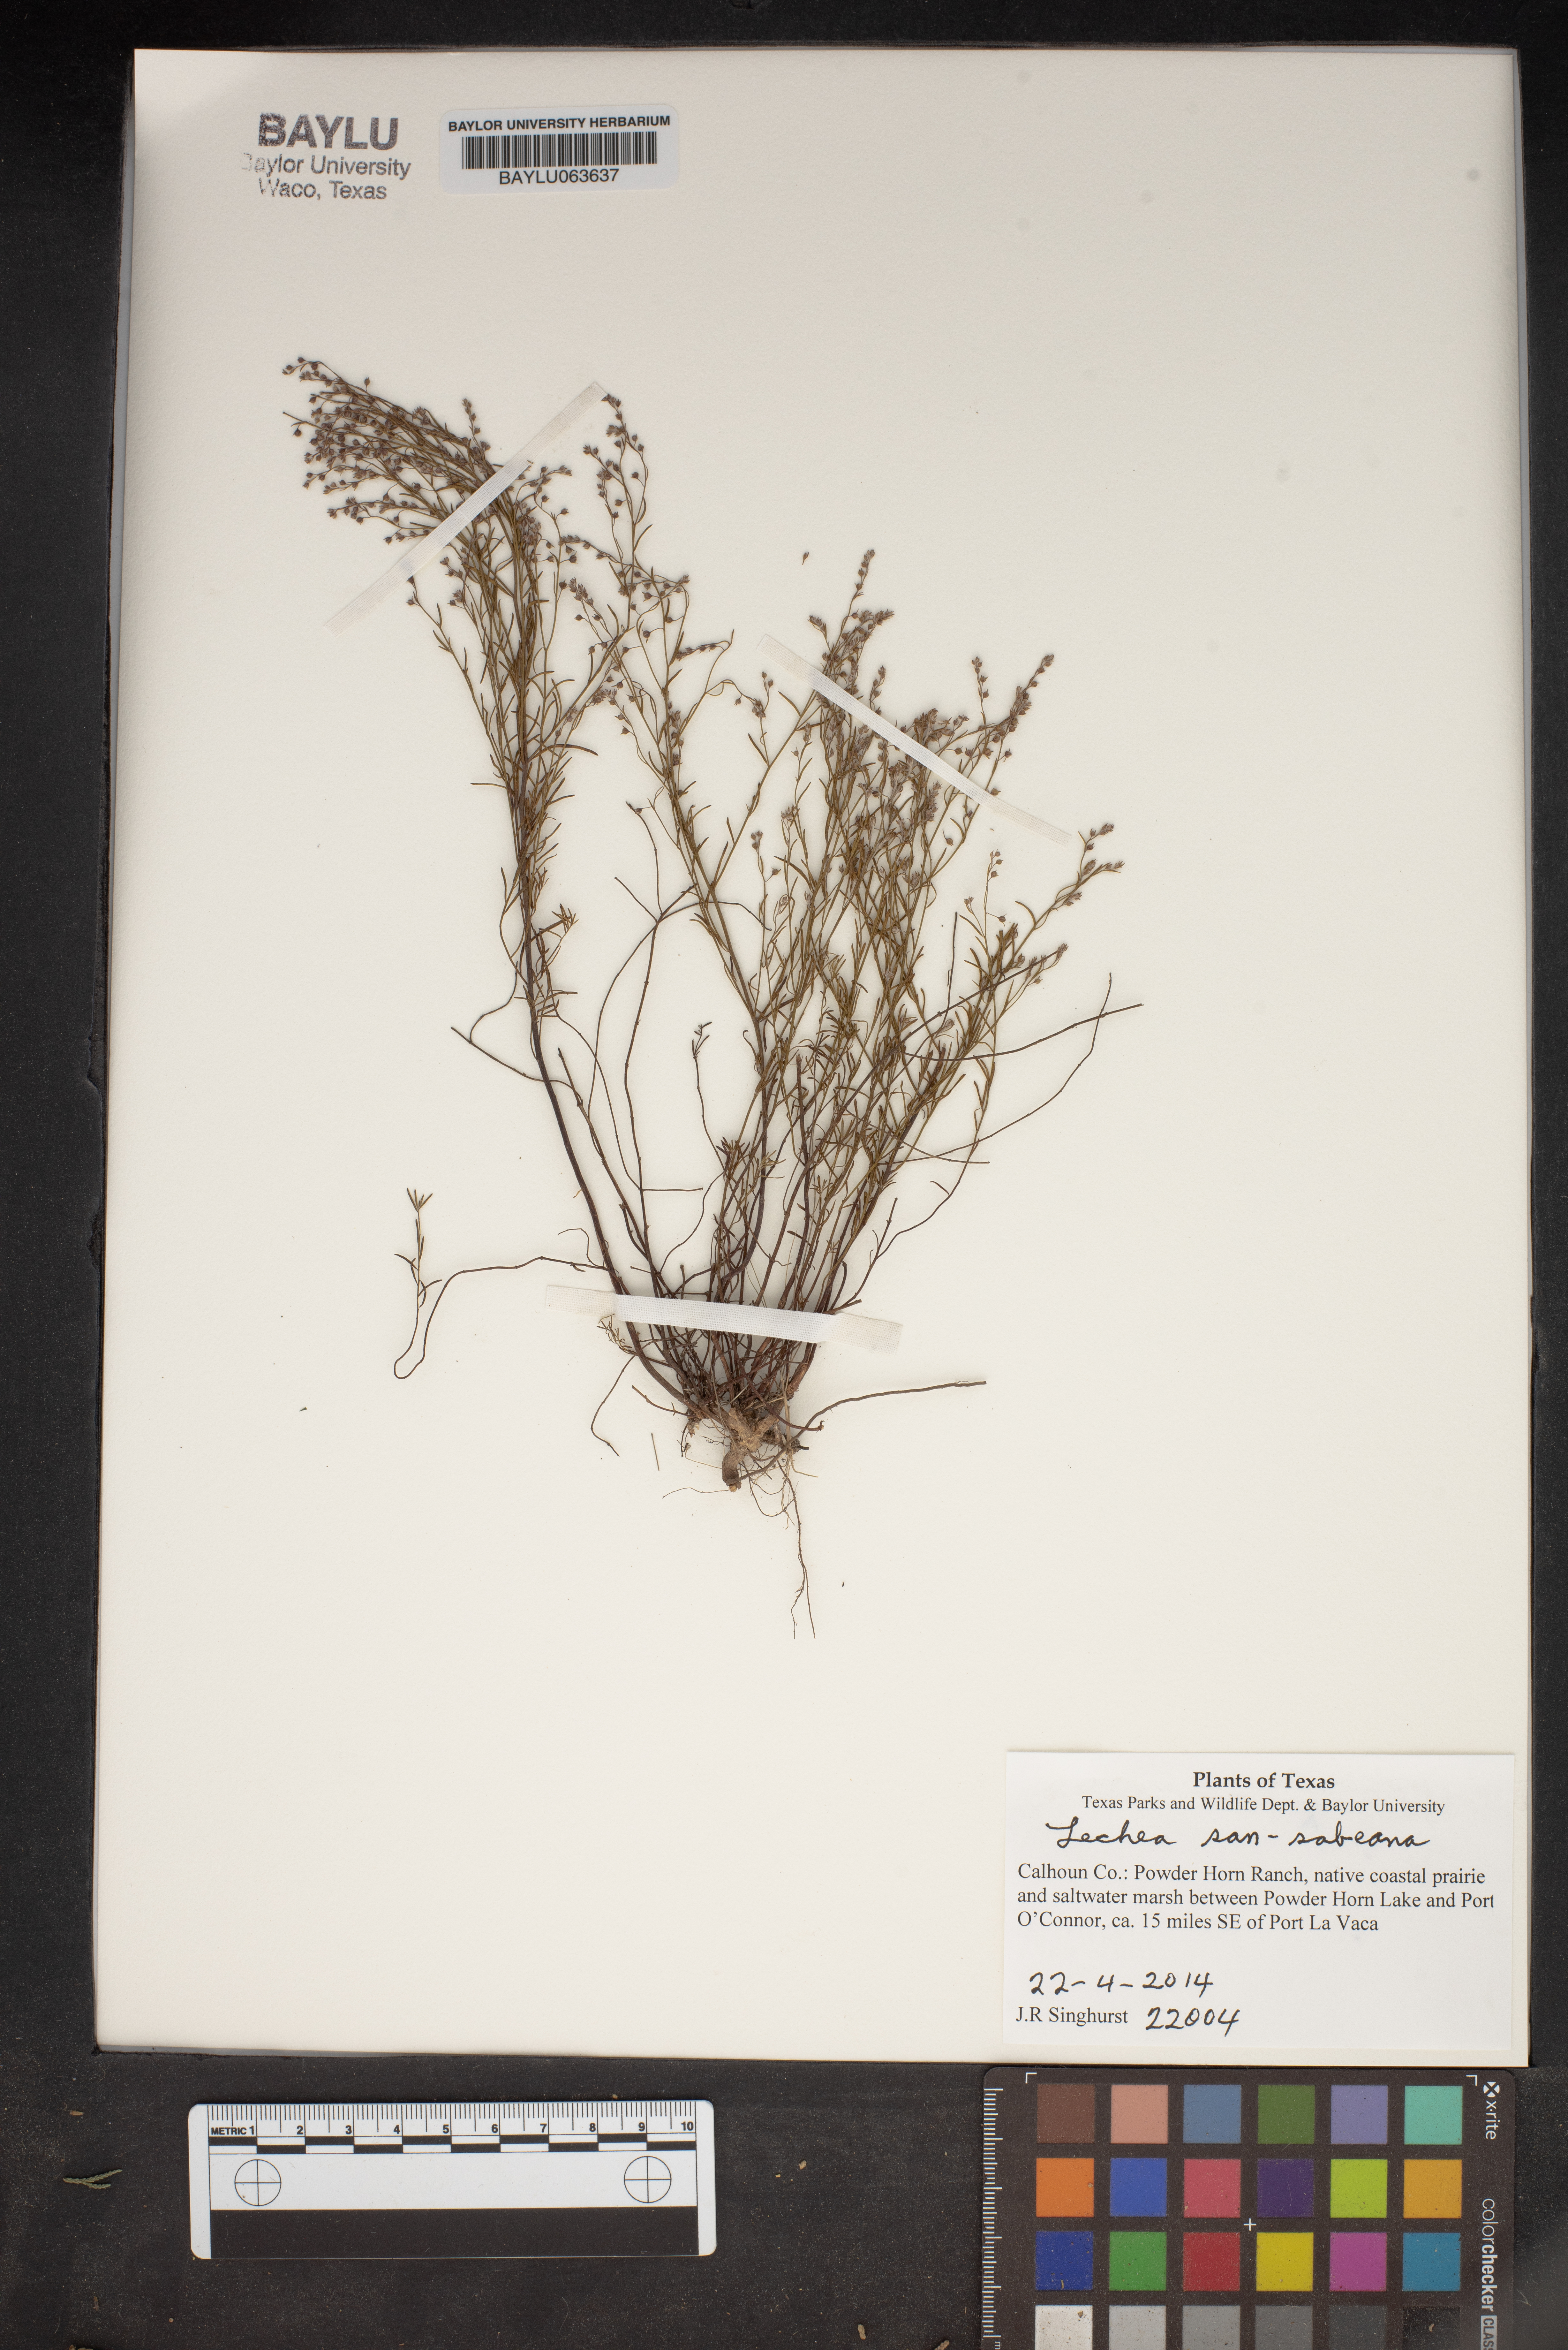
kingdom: Plantae
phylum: Tracheophyta
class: Magnoliopsida
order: Malvales
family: Cistaceae
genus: Lechea
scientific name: Lechea san-sabeana
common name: San saba pinweed
